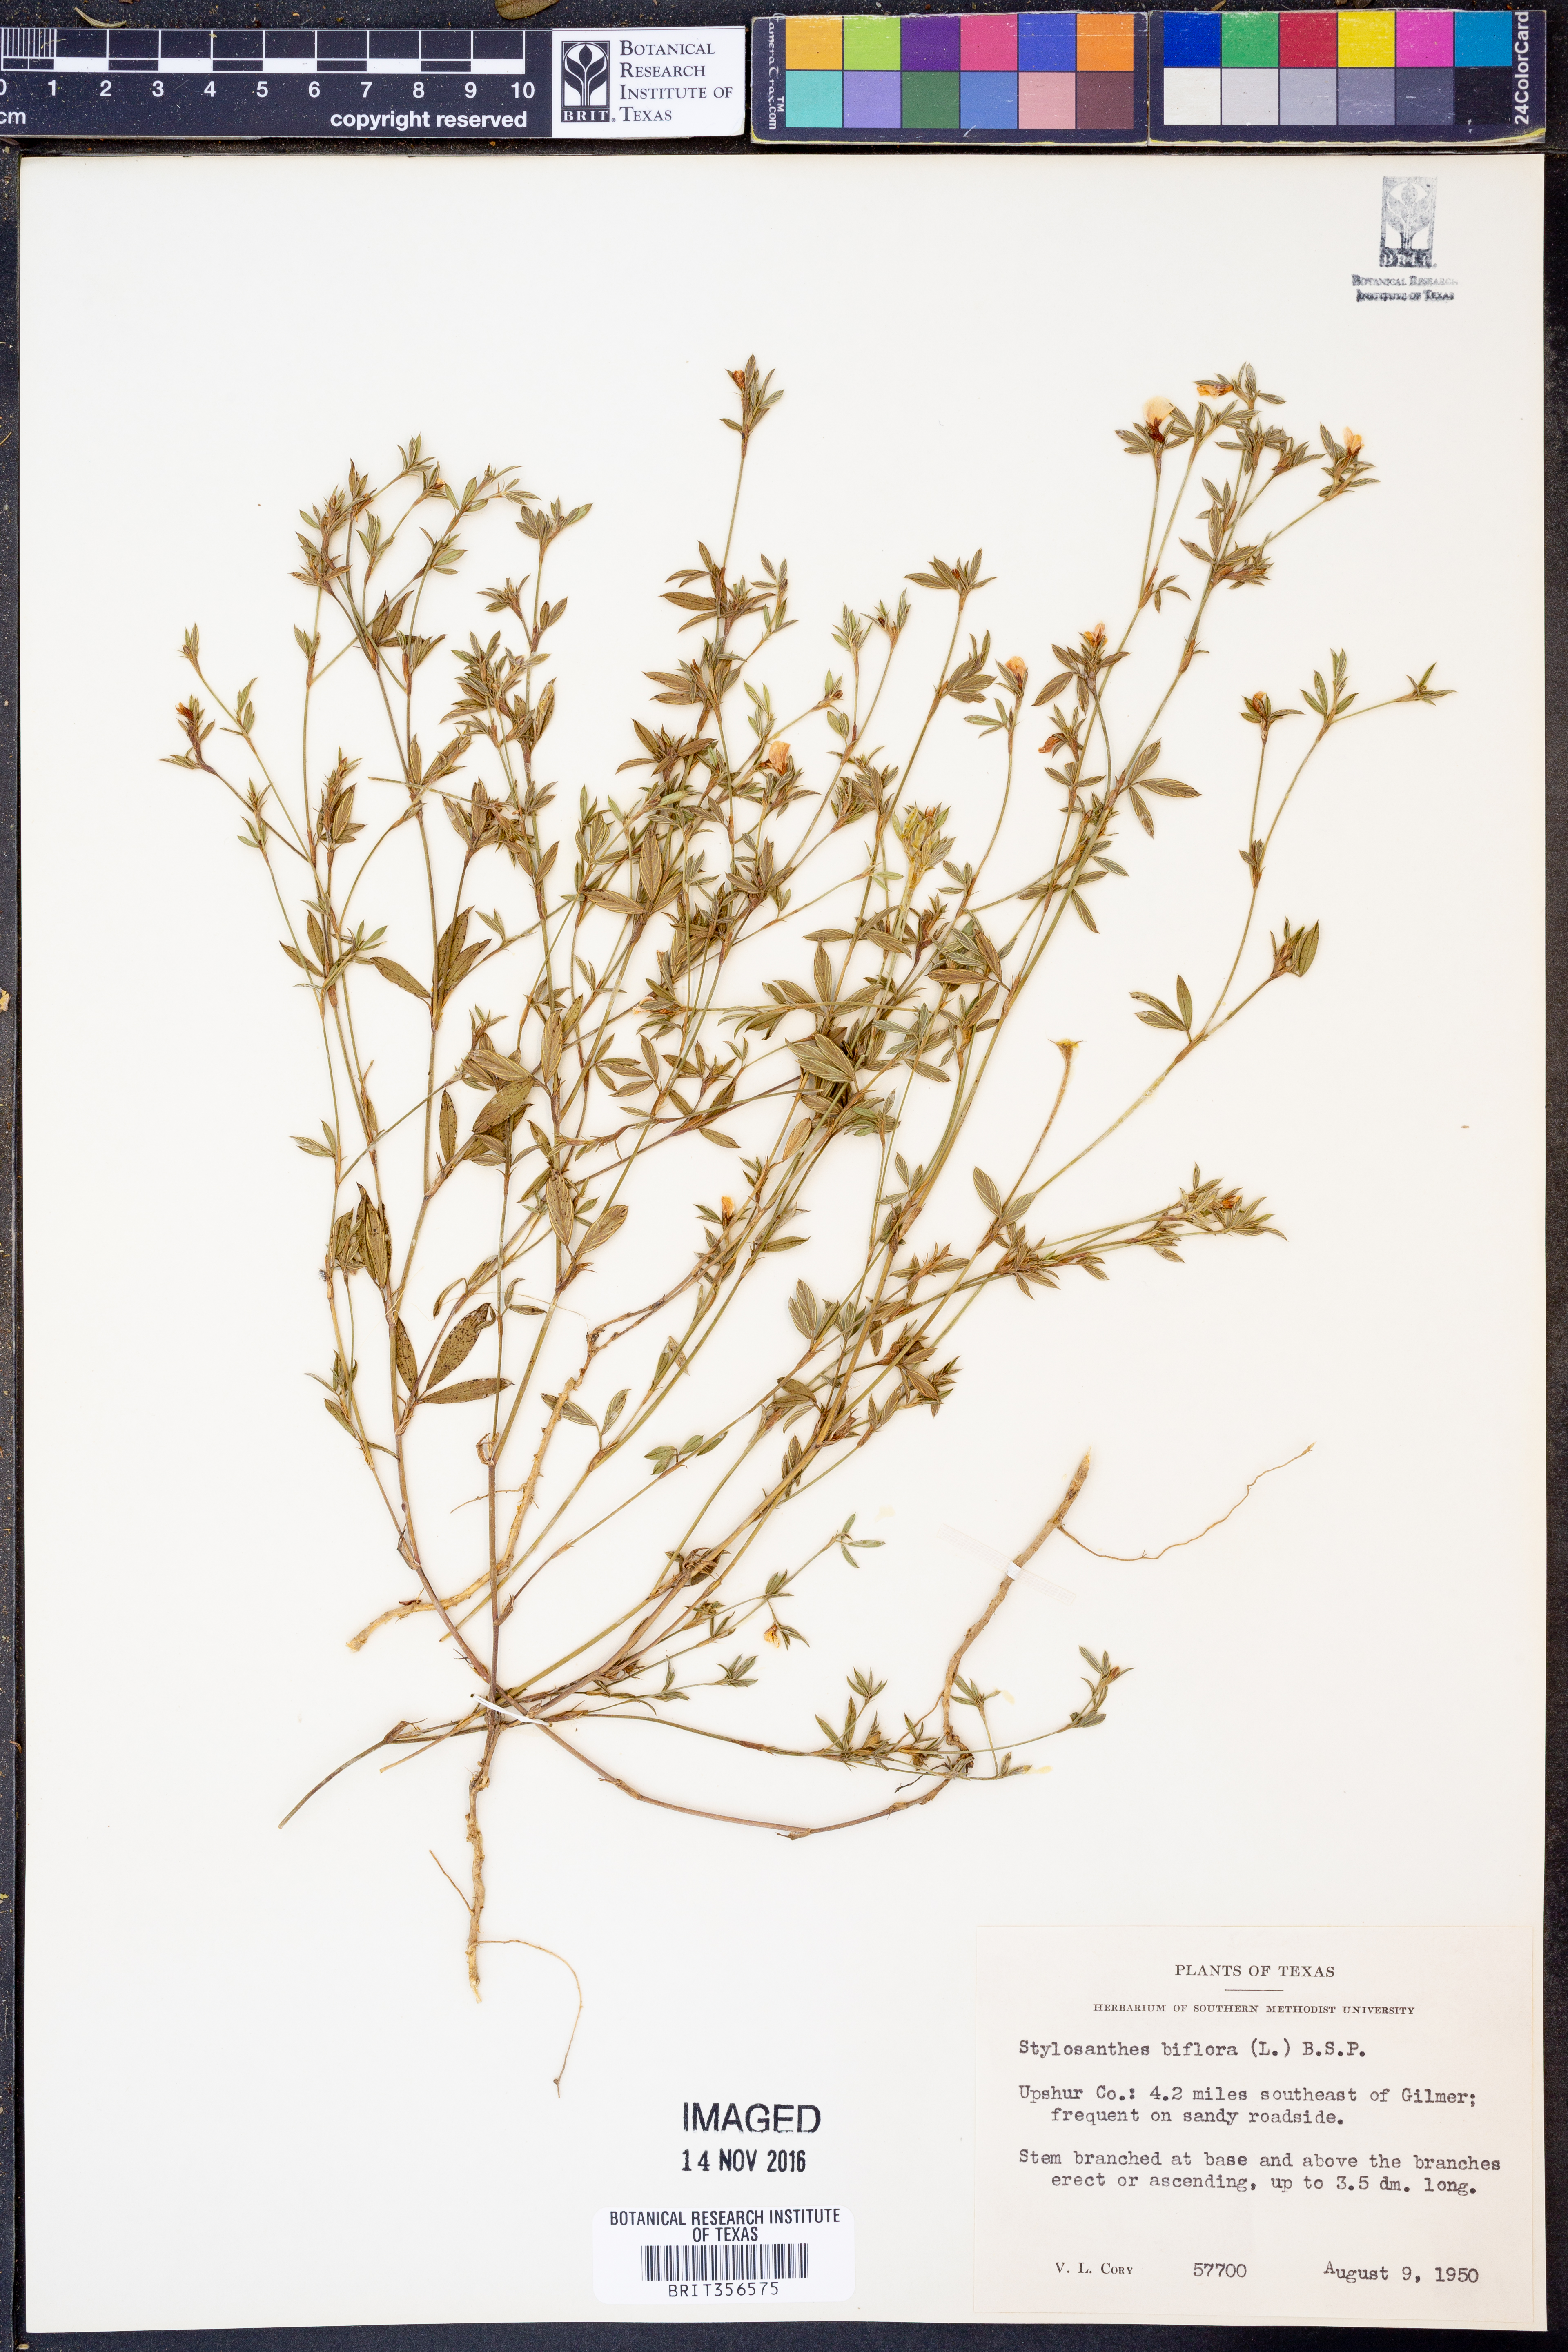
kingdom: Plantae
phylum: Tracheophyta
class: Magnoliopsida
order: Fabales
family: Fabaceae
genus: Stylosanthes
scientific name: Stylosanthes biflora
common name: Two-flower pencil-flower
